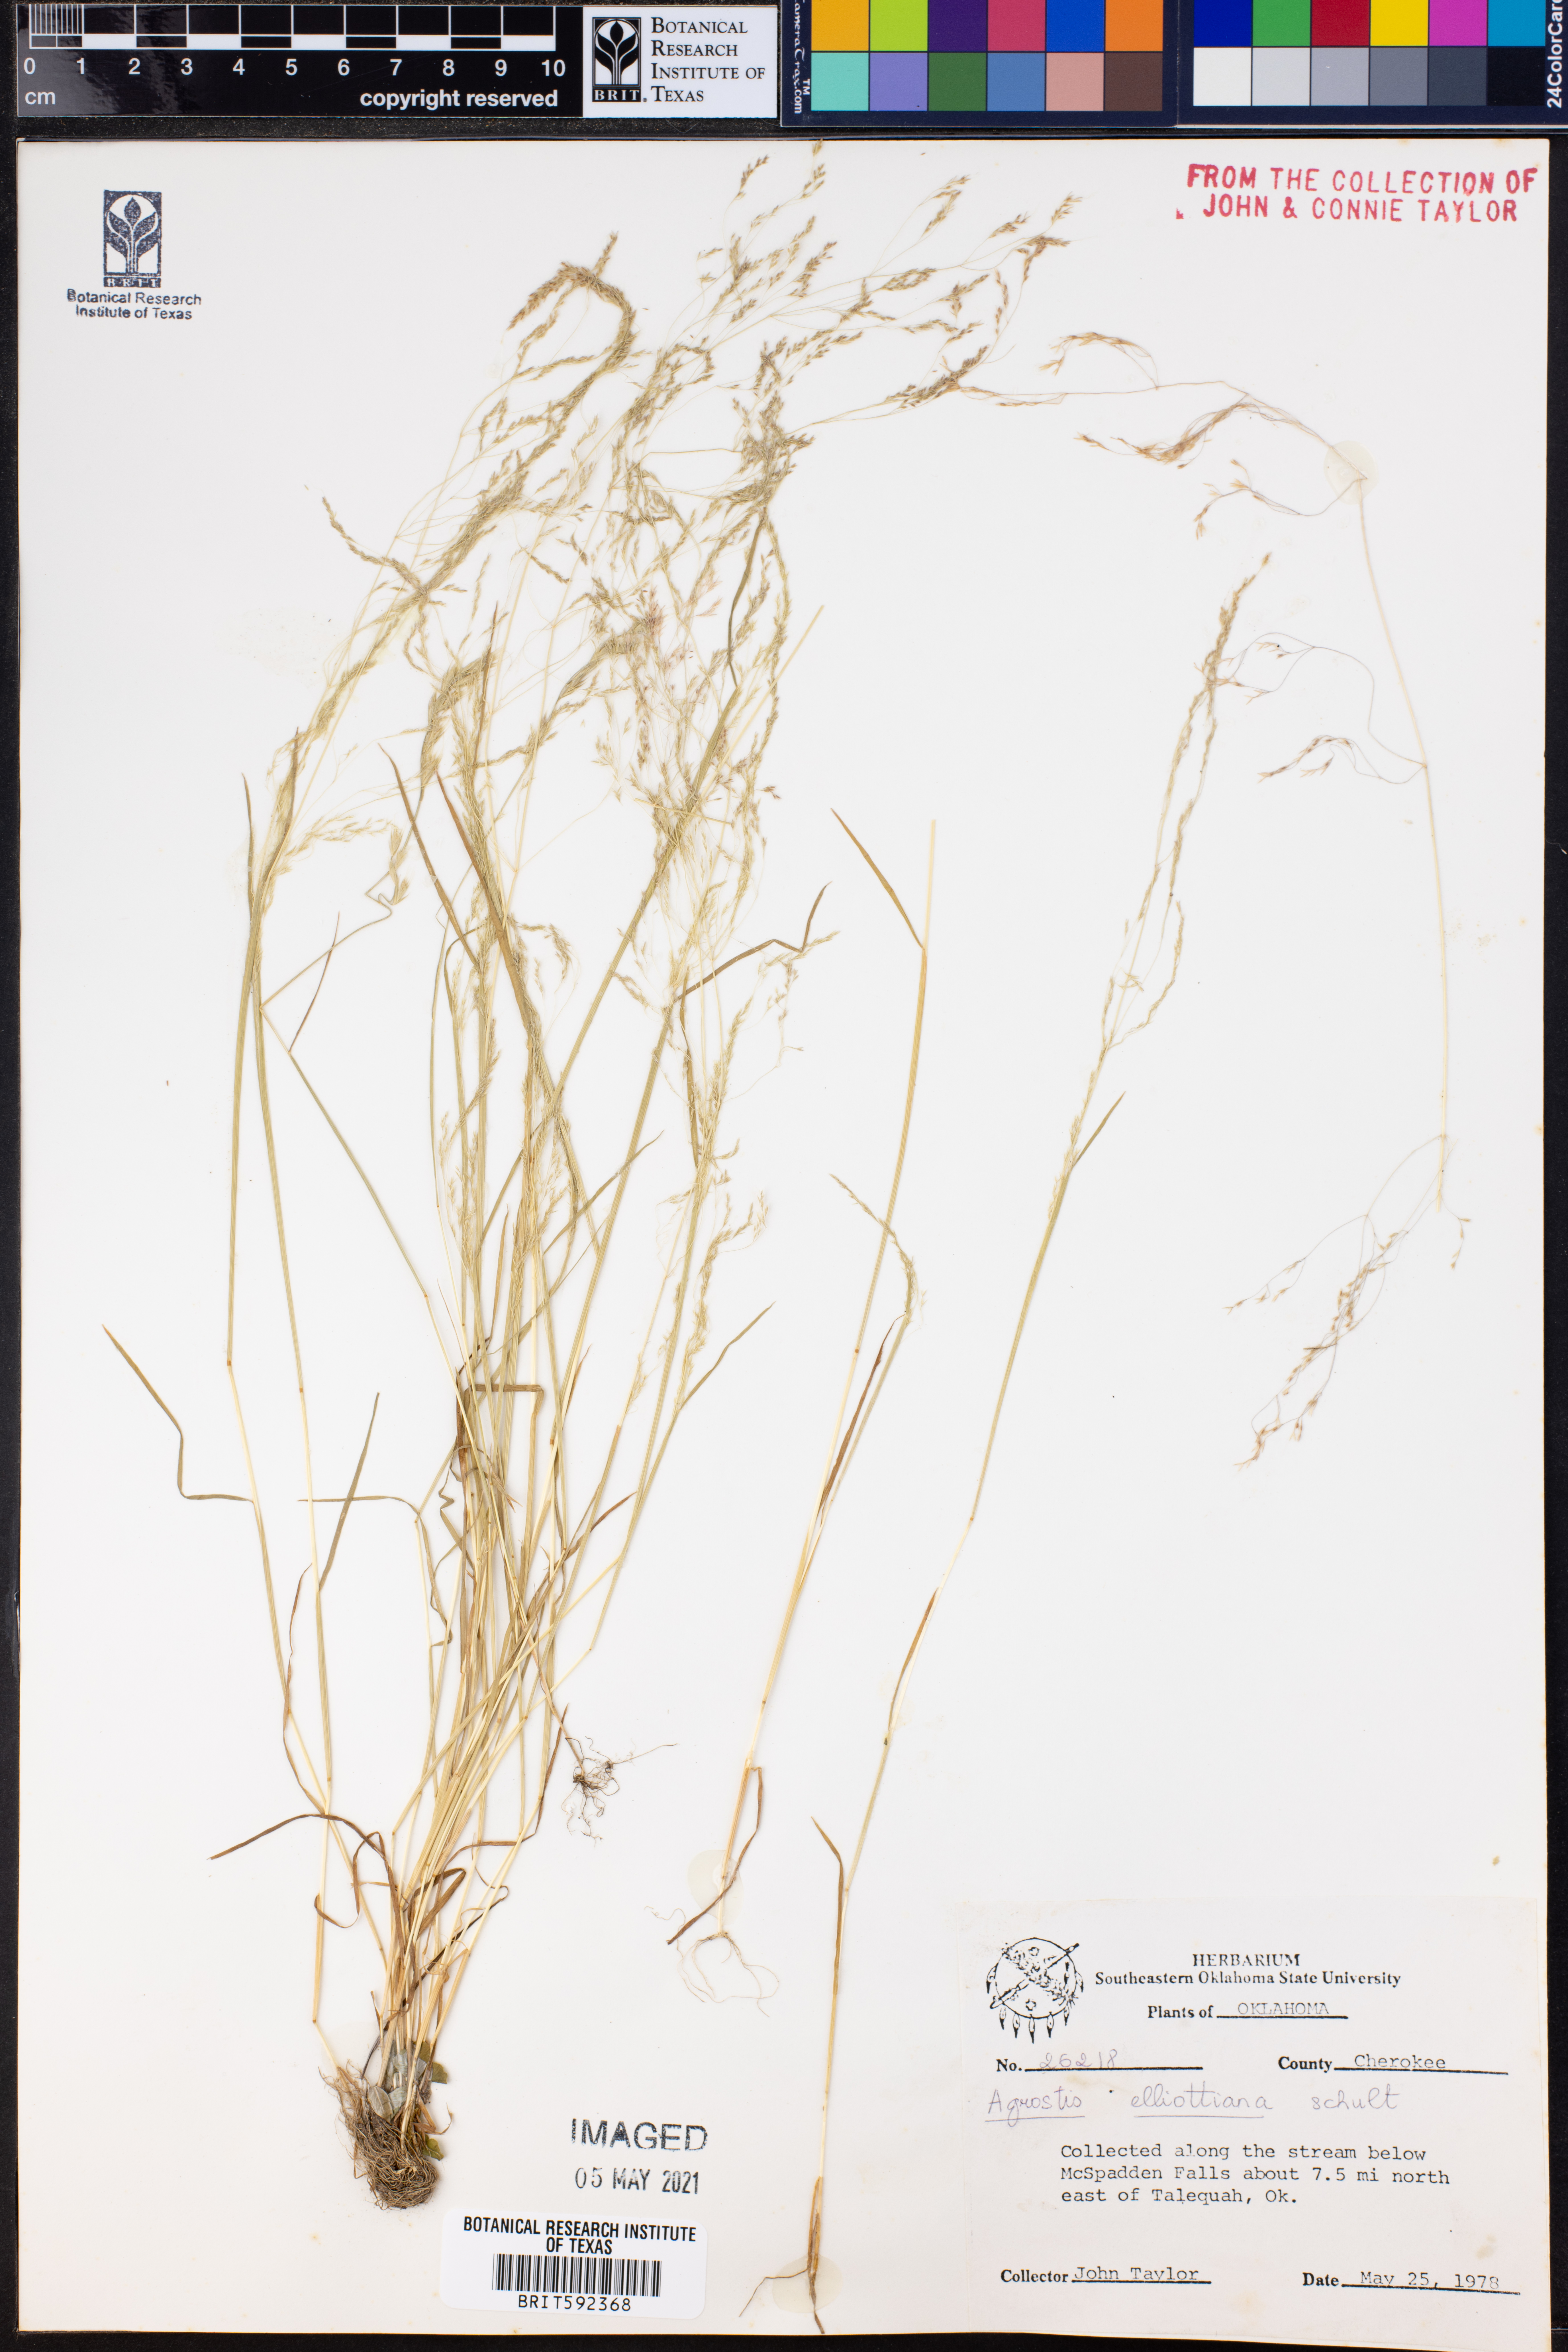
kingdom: Plantae
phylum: Tracheophyta
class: Liliopsida
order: Poales
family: Poaceae
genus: Agrostis
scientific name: Agrostis elliottiana
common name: Elliott's bent
